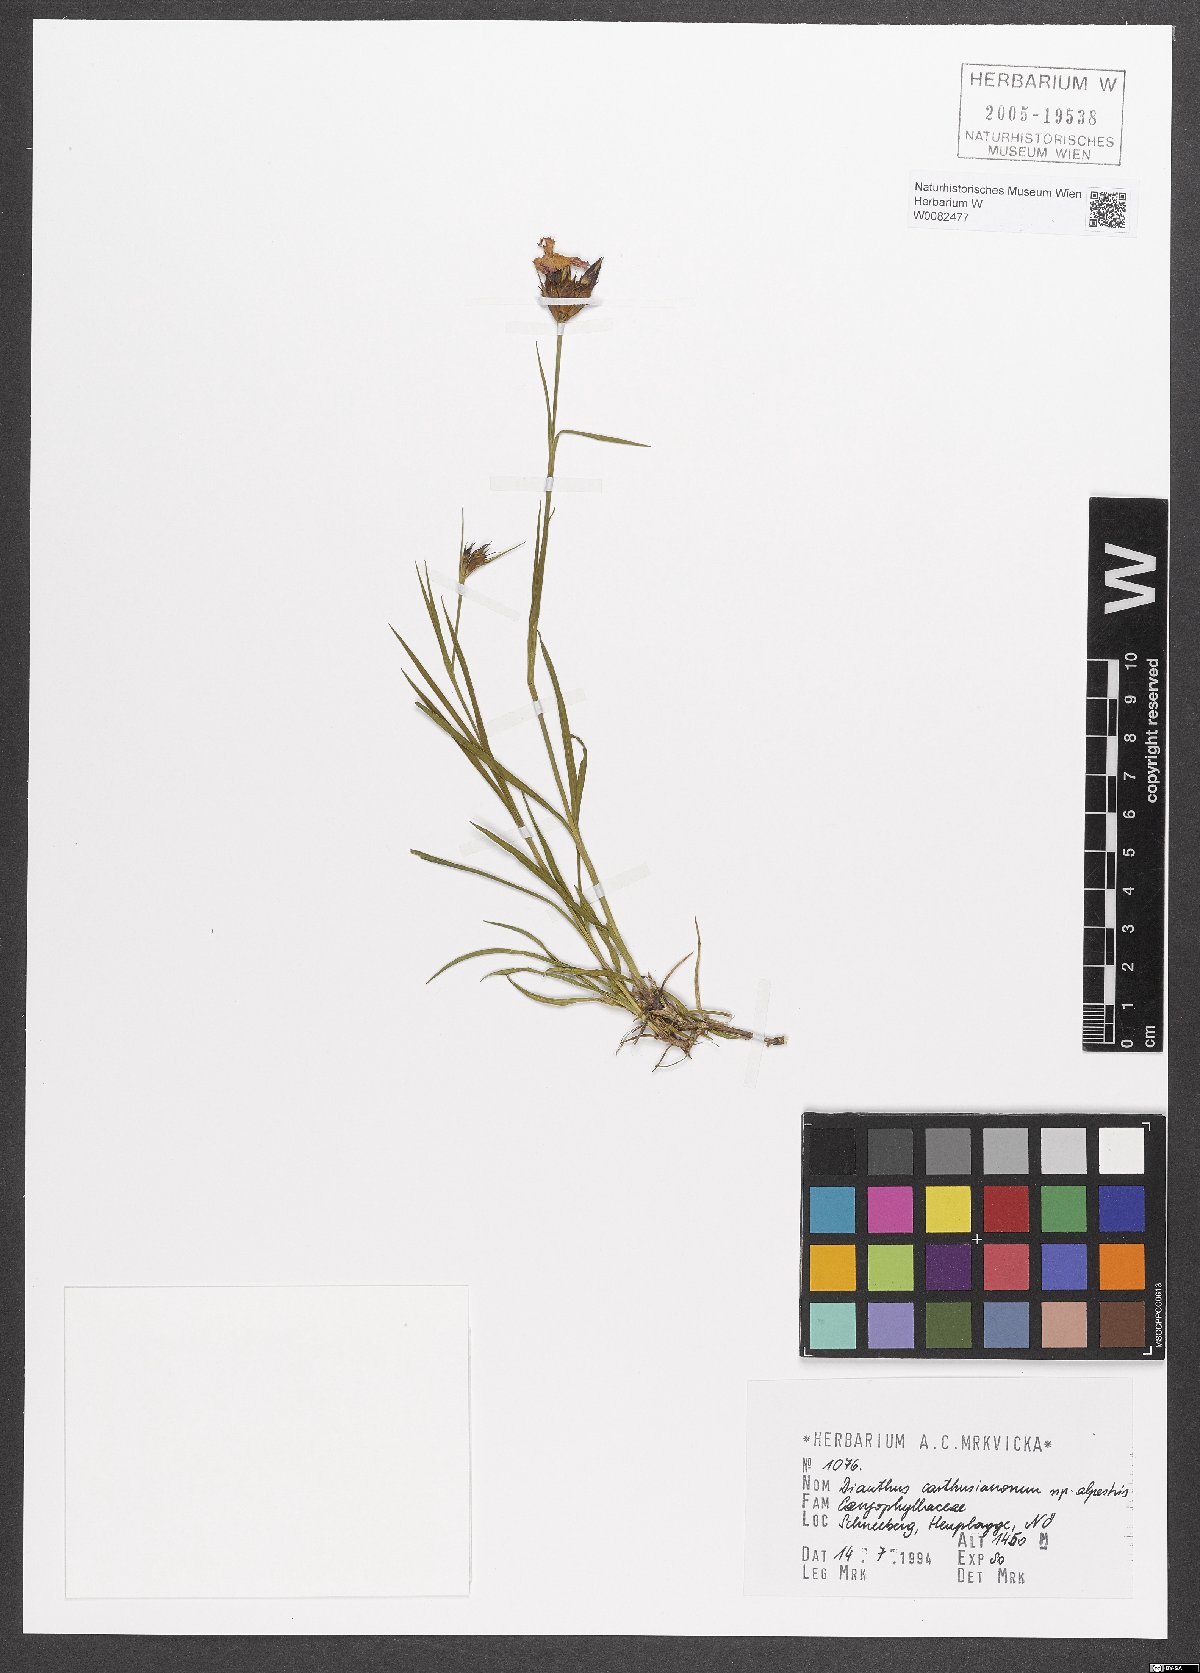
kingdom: Plantae
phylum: Tracheophyta
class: Magnoliopsida
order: Caryophyllales
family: Caryophyllaceae
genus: Dianthus
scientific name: Dianthus carthusianorum
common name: Carthusian pink
